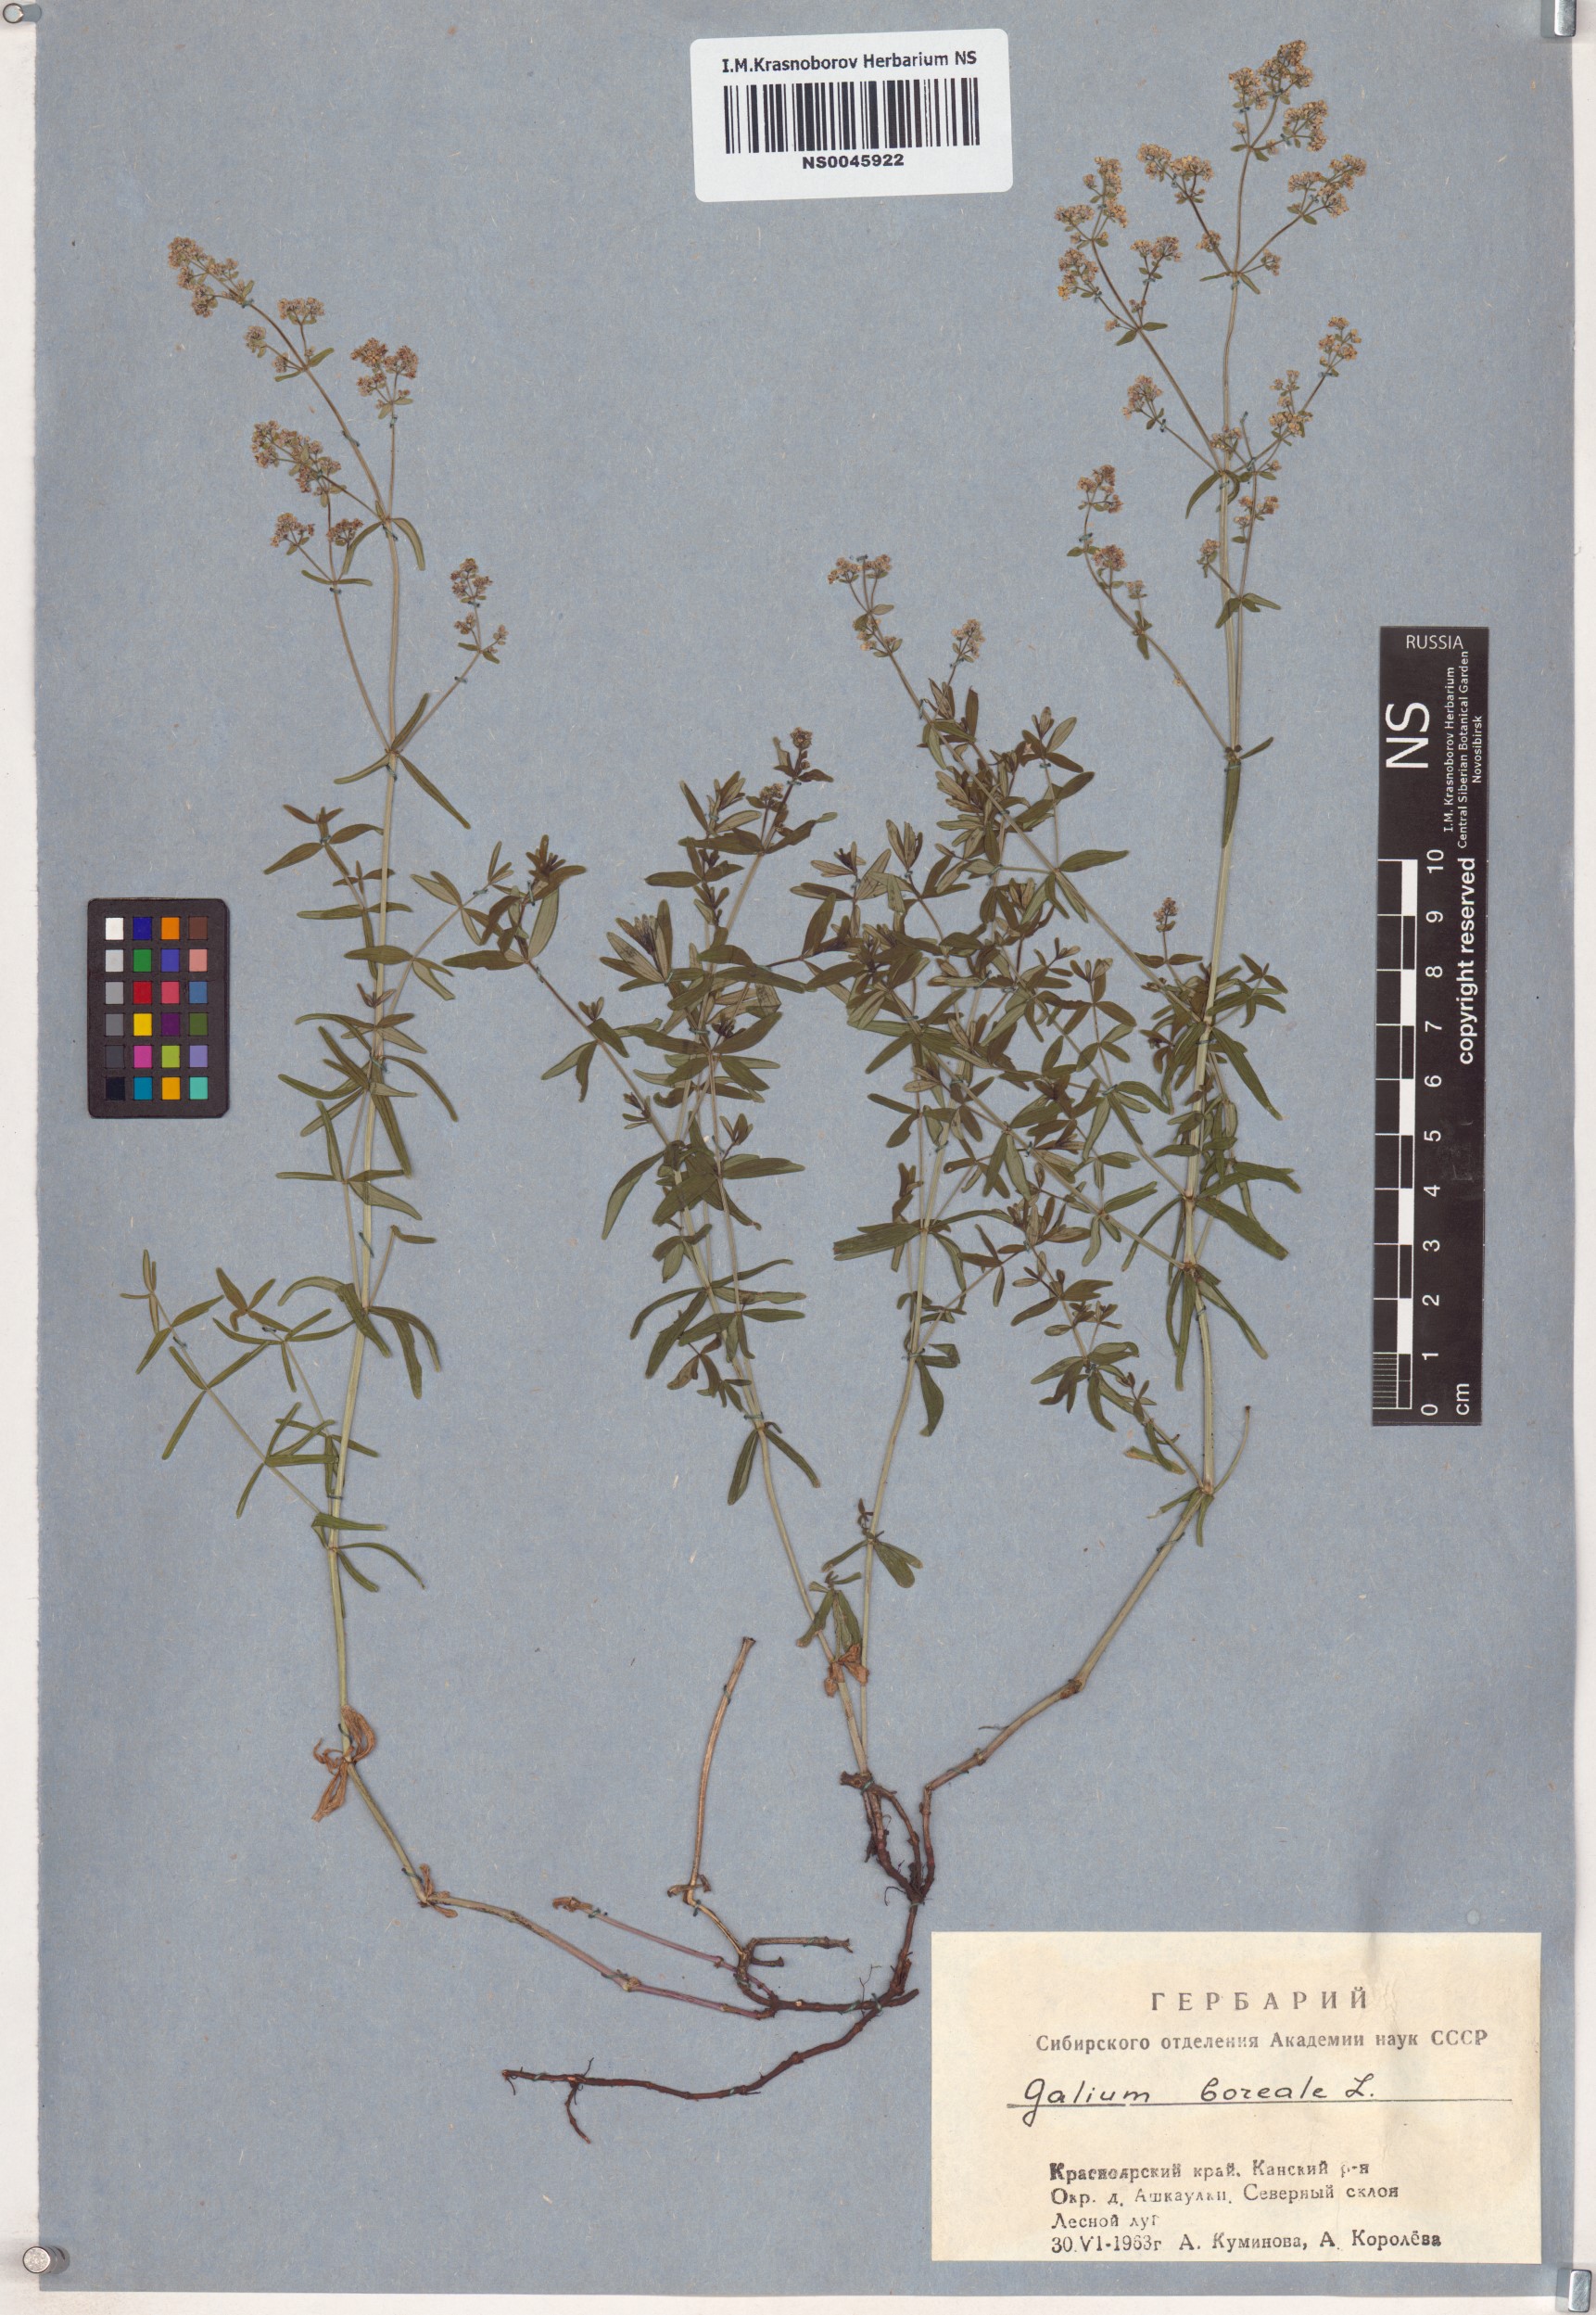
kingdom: Plantae
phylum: Tracheophyta
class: Magnoliopsida
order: Gentianales
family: Rubiaceae
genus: Galium
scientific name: Galium boreale
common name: Northern bedstraw
